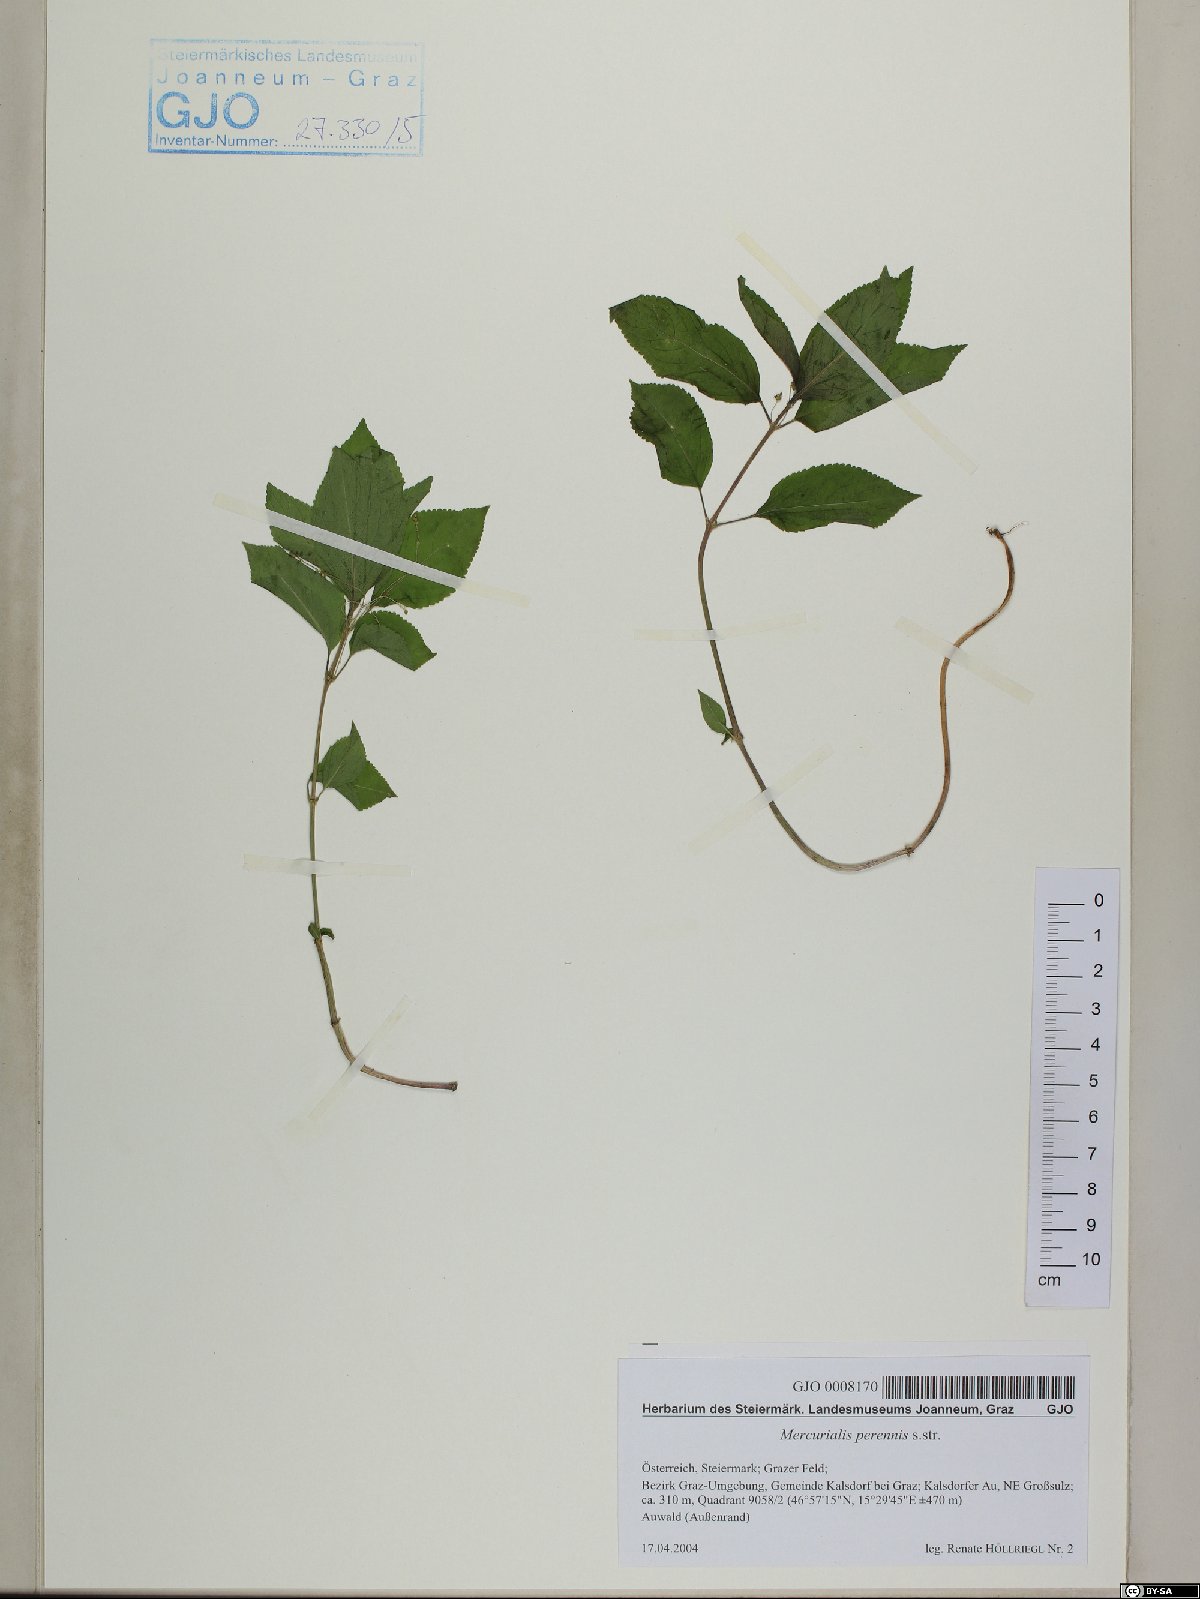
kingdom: Plantae
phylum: Tracheophyta
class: Magnoliopsida
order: Malpighiales
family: Euphorbiaceae
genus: Mercurialis
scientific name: Mercurialis perennis
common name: Dog mercury
